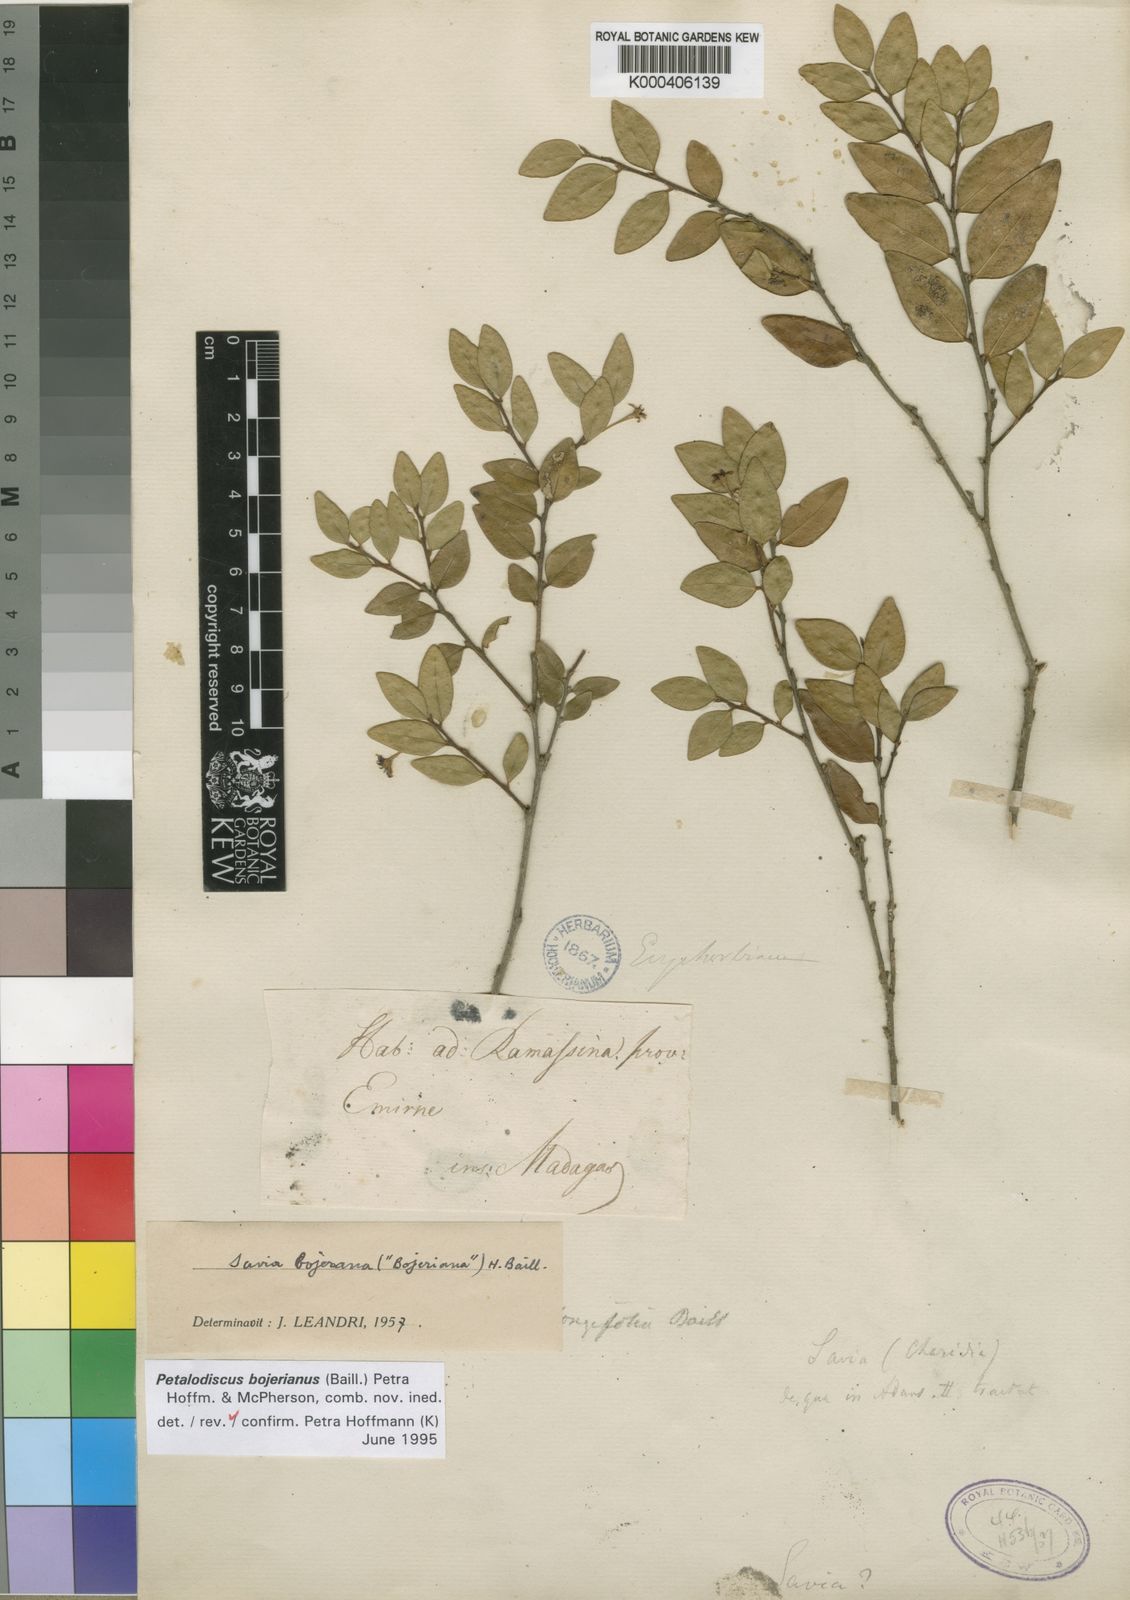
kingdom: Plantae
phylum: Tracheophyta
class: Magnoliopsida
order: Malpighiales
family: Phyllanthaceae
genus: Wielandia
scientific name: Wielandia
